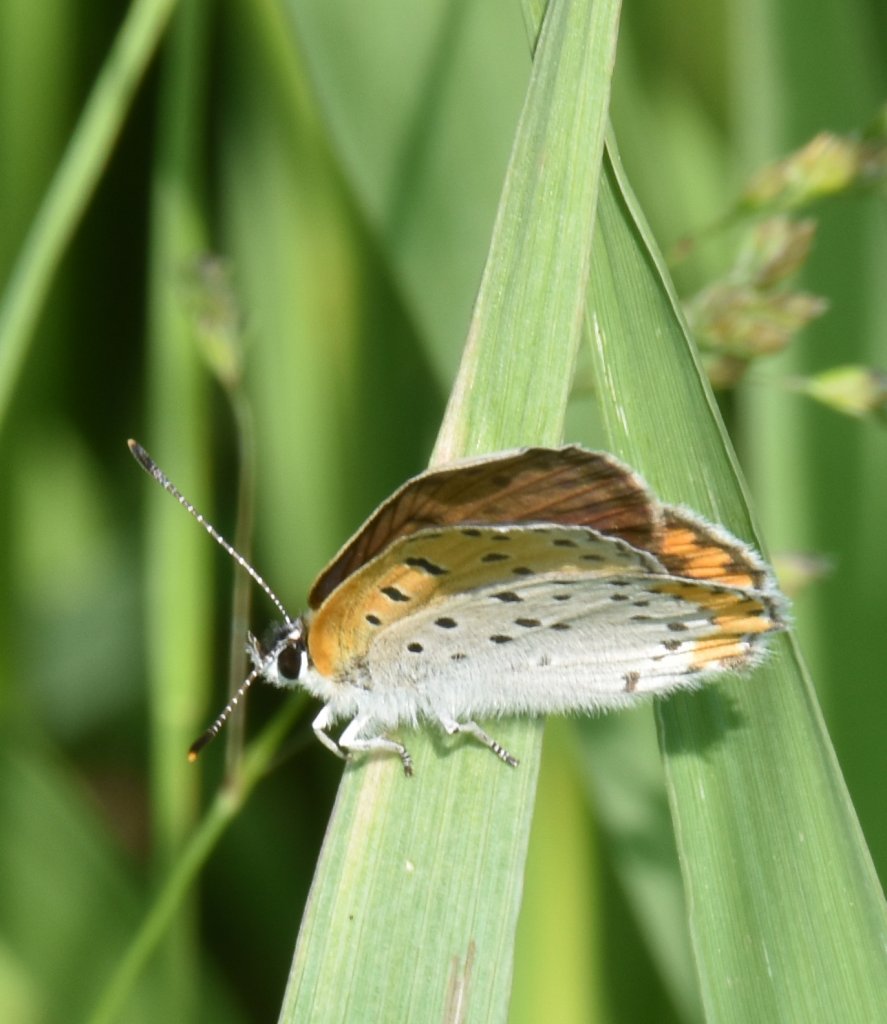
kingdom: Animalia
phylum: Arthropoda
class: Insecta
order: Lepidoptera
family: Sesiidae
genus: Sesia
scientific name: Sesia Lycaena hyllus
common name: Bronze Copper
